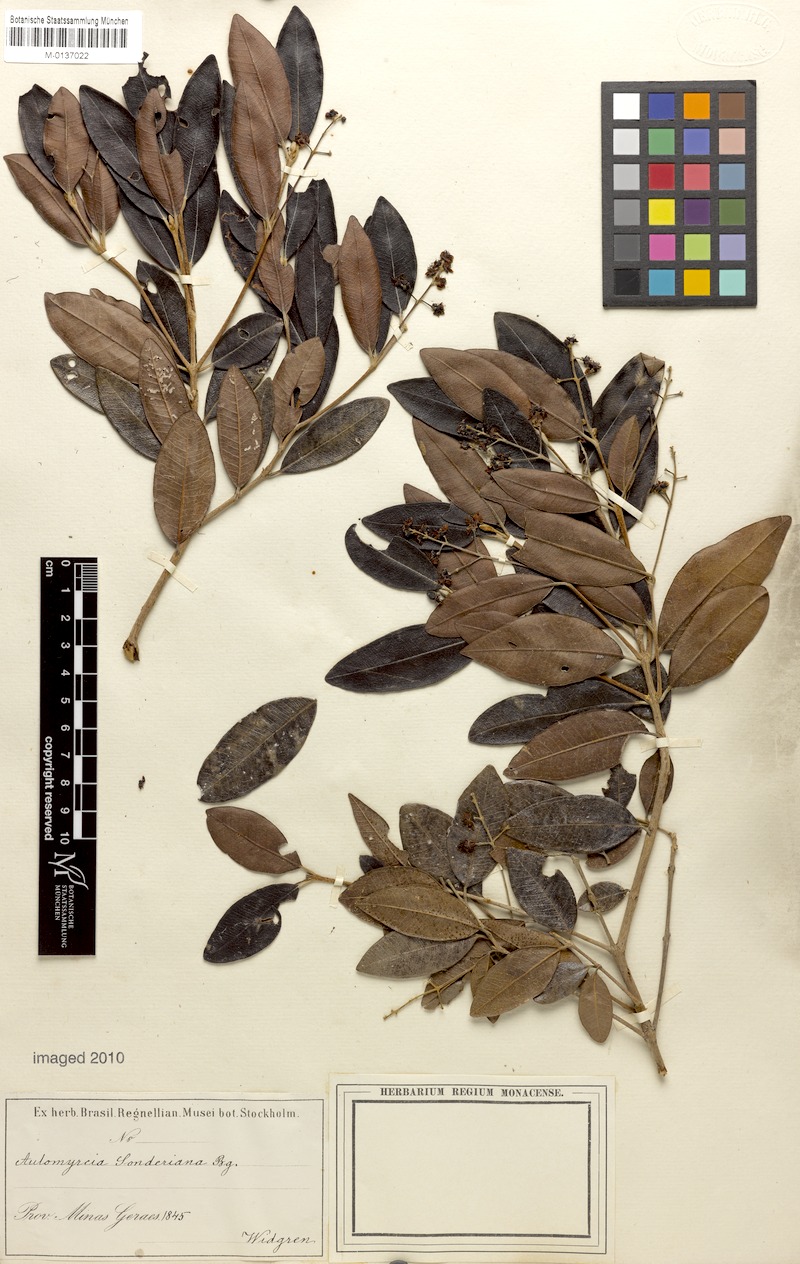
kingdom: Plantae
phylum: Tracheophyta
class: Magnoliopsida
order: Myrtales
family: Myrtaceae
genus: Myrcia
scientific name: Myrcia venulosa
